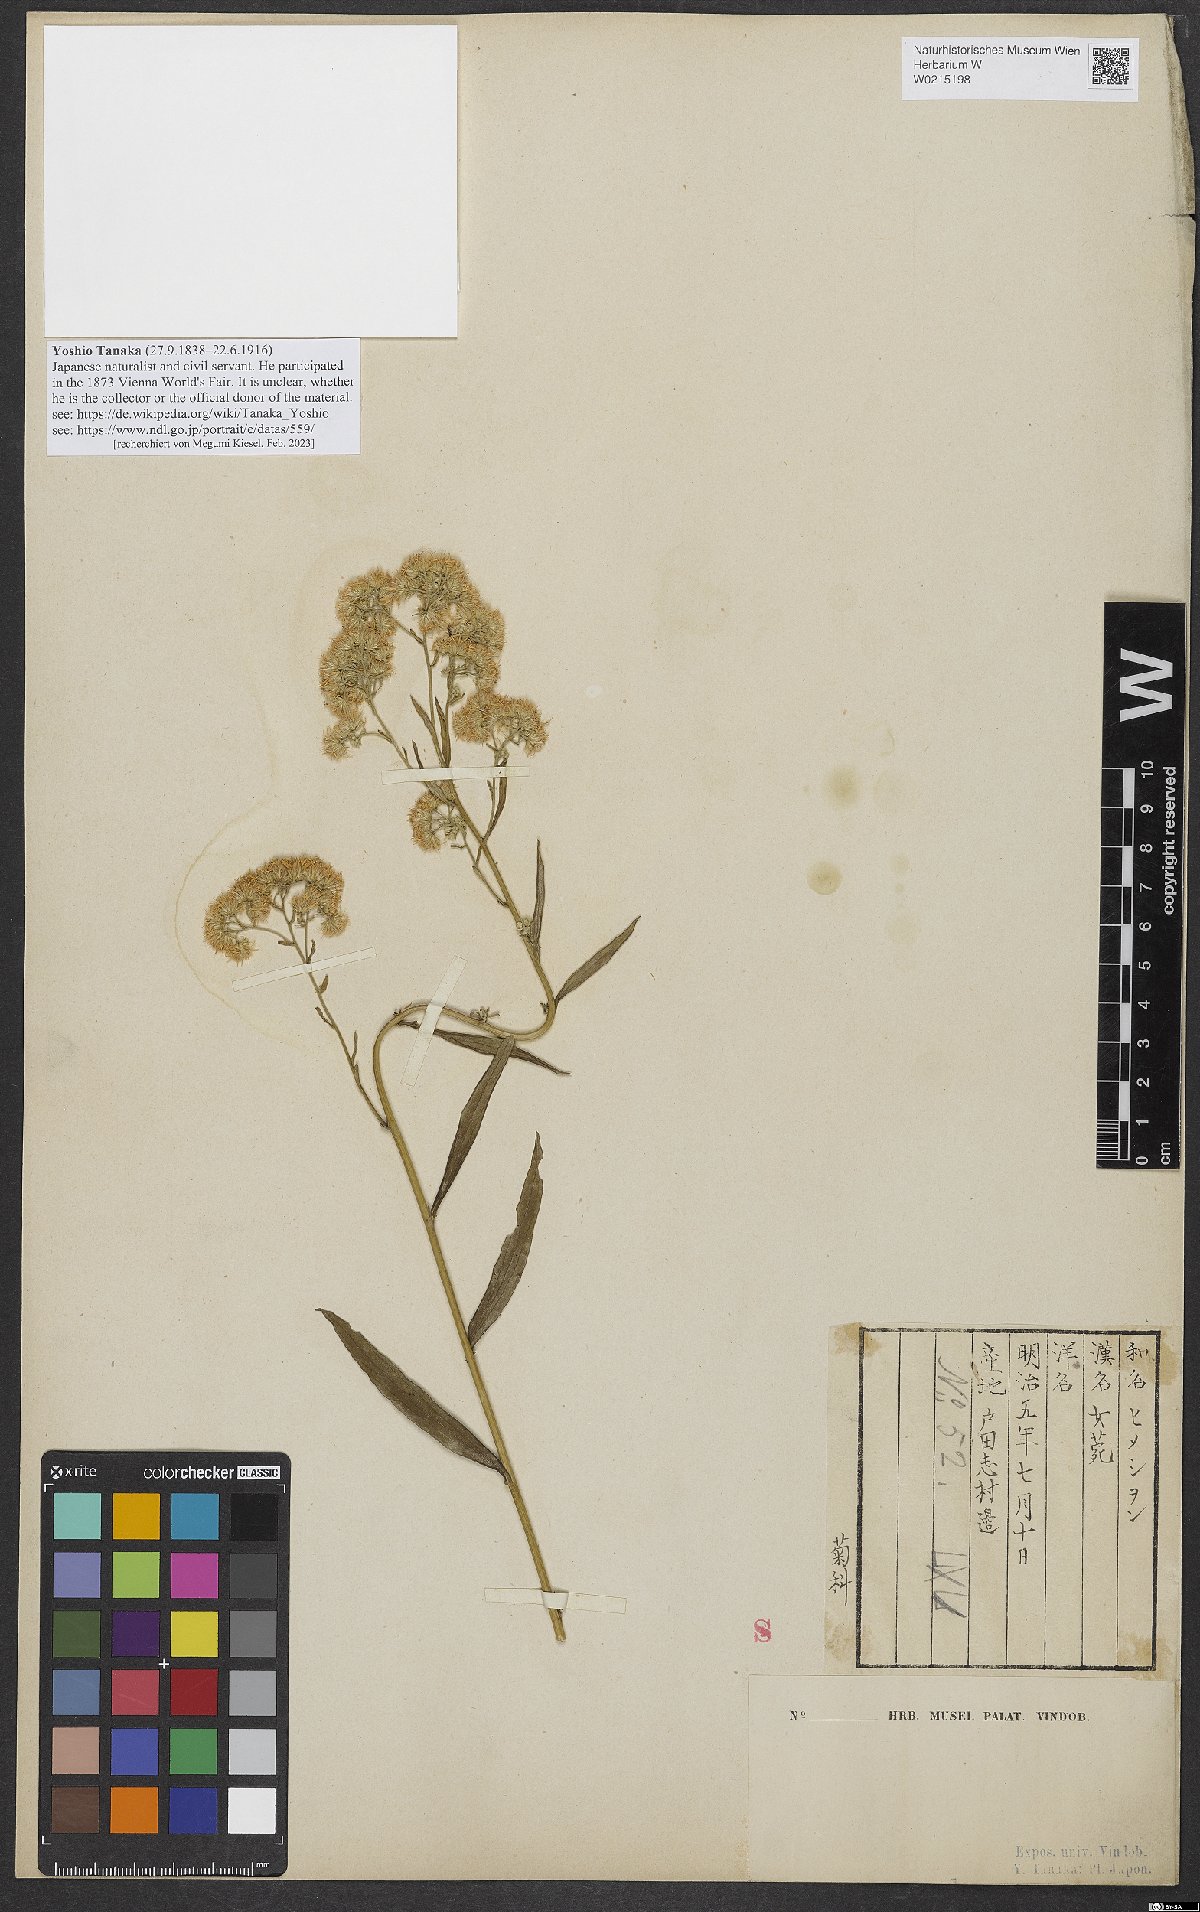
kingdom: Plantae
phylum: Tracheophyta
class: Magnoliopsida
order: Asterales
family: Asteraceae
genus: Turczaninovia
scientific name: Turczaninovia fastigiata
